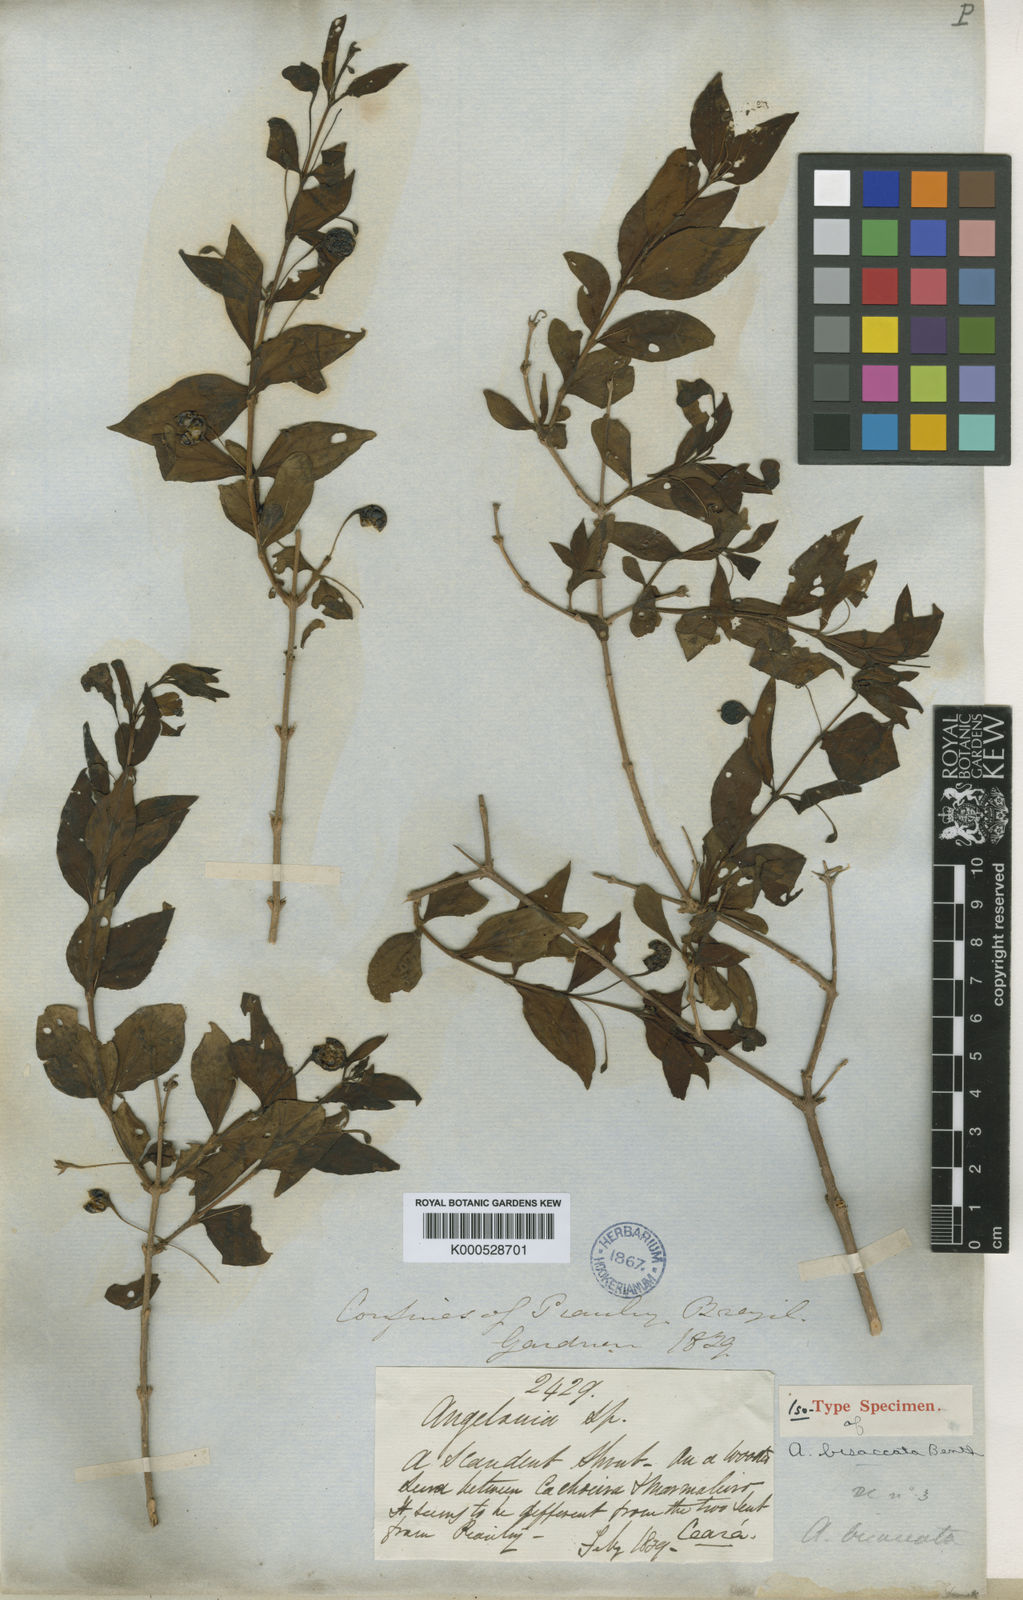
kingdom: Plantae
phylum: Tracheophyta
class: Magnoliopsida
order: Lamiales
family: Plantaginaceae
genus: Angelonia
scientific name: Angelonia campestris
